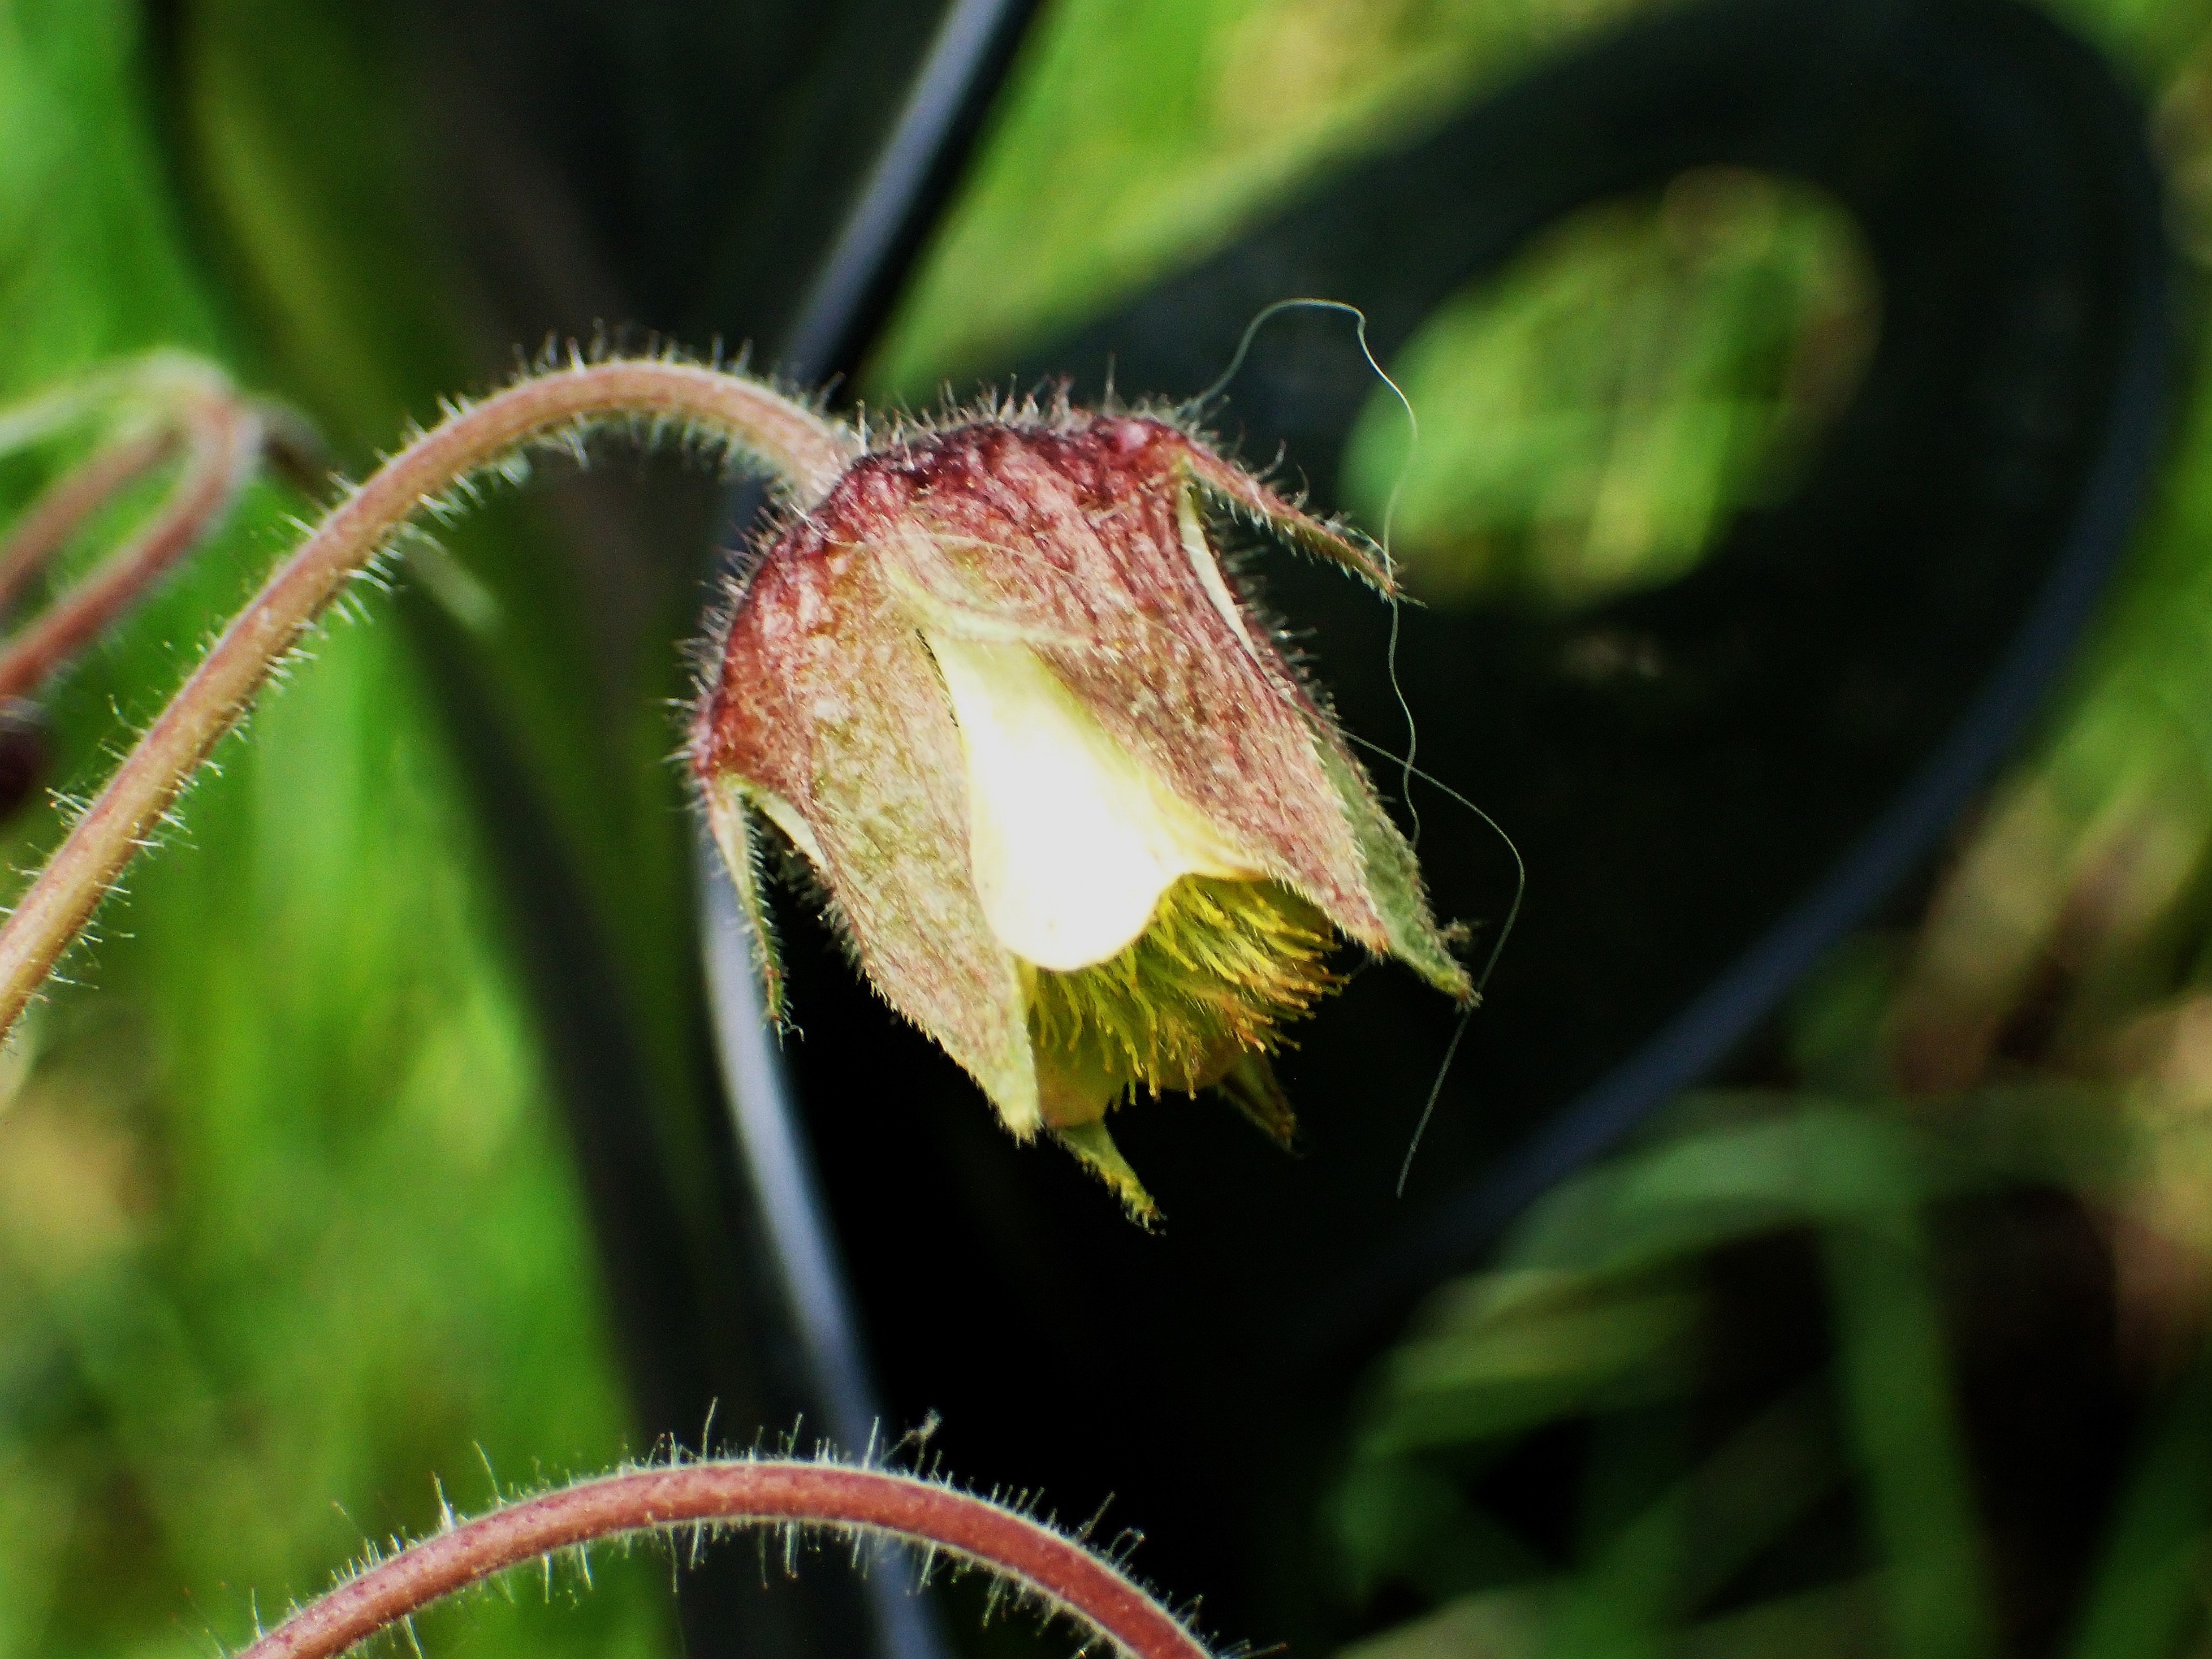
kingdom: Plantae
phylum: Tracheophyta
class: Magnoliopsida
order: Rosales
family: Rosaceae
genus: Geum
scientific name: Geum rivale
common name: Eng-nellikerod
